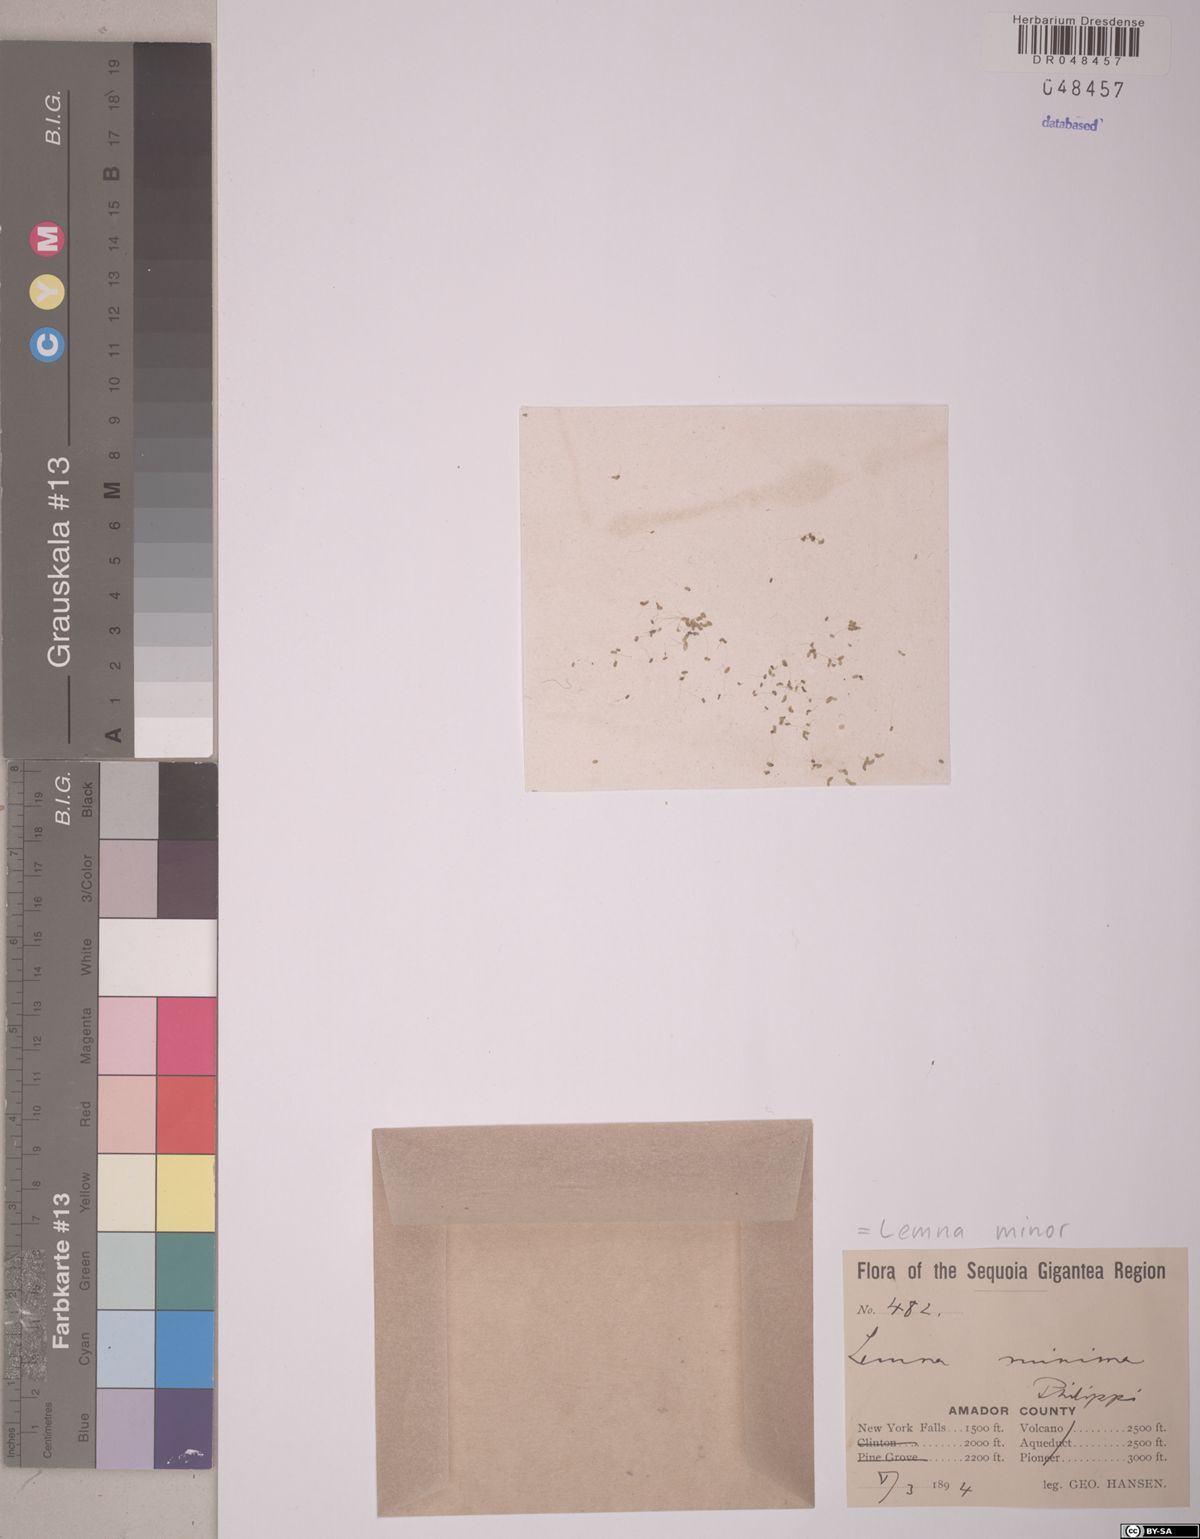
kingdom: Plantae
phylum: Tracheophyta
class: Liliopsida
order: Alismatales
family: Araceae
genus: Lemna
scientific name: Lemna minor
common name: Common duckweed
